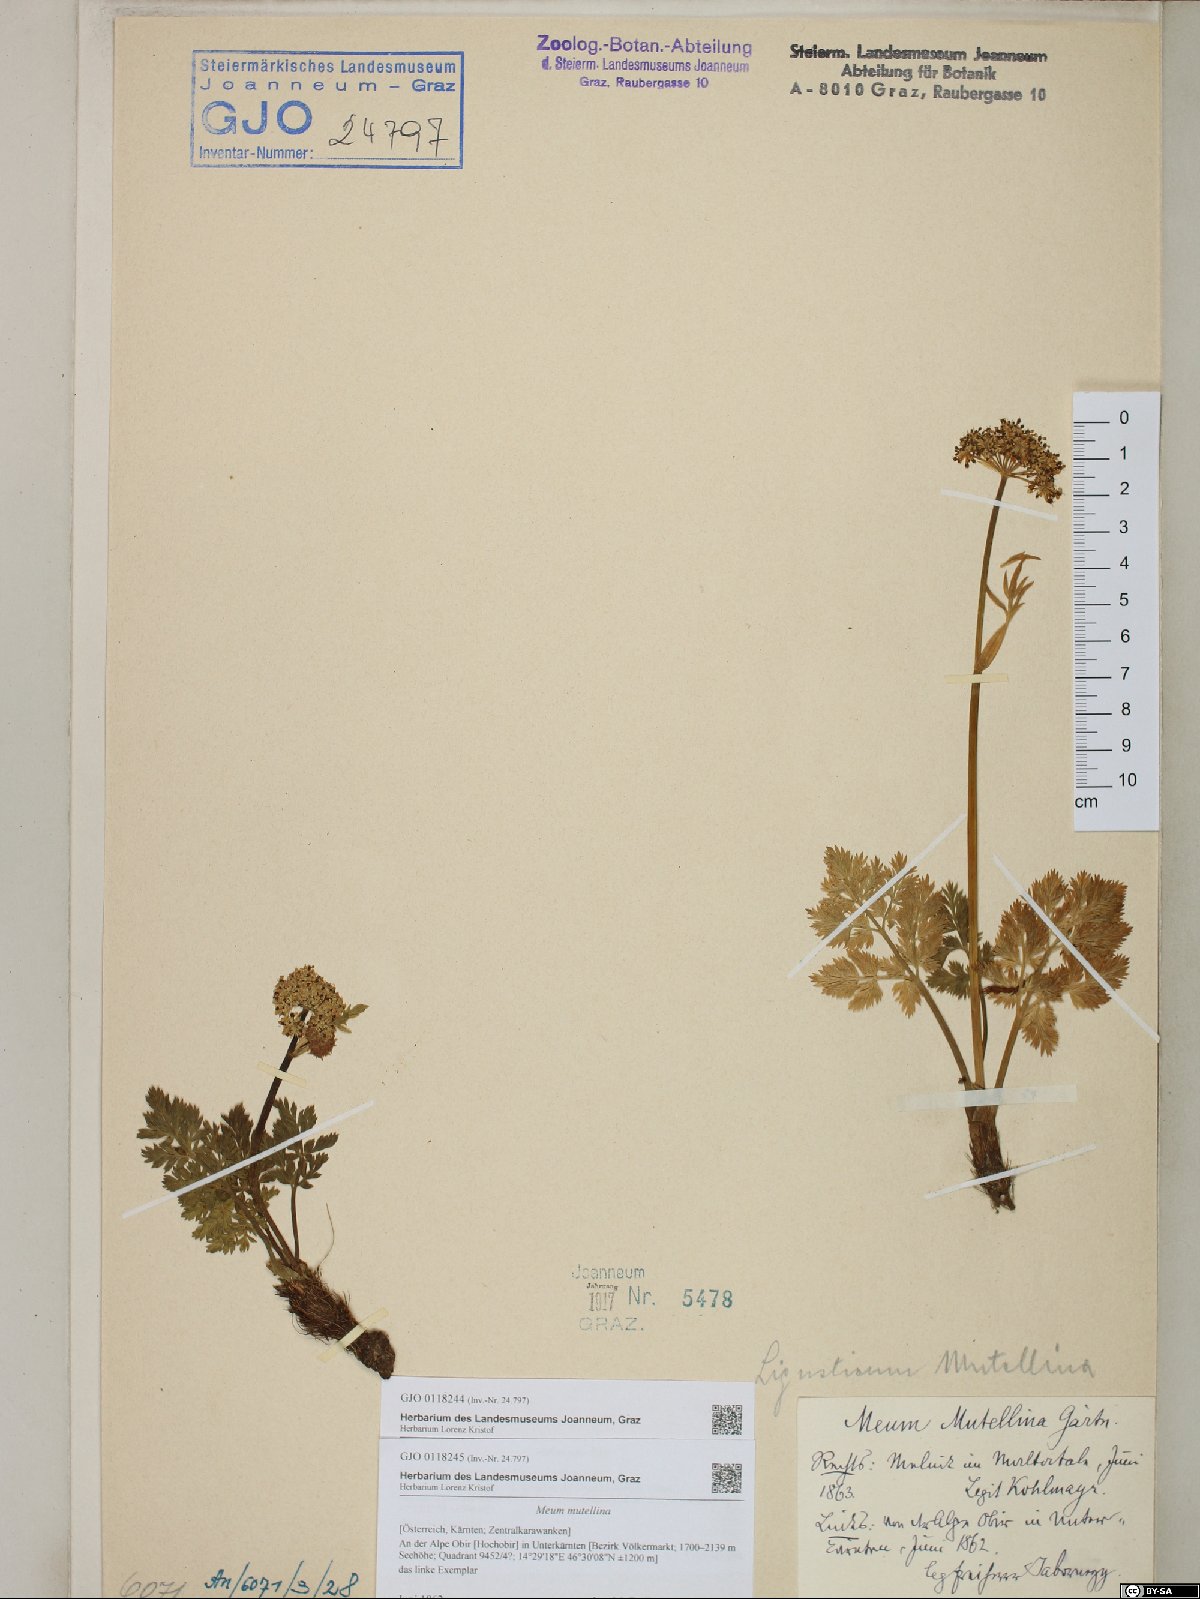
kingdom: Plantae
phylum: Tracheophyta
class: Magnoliopsida
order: Apiales
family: Apiaceae
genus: Mutellina
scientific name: Mutellina adonidifolia
